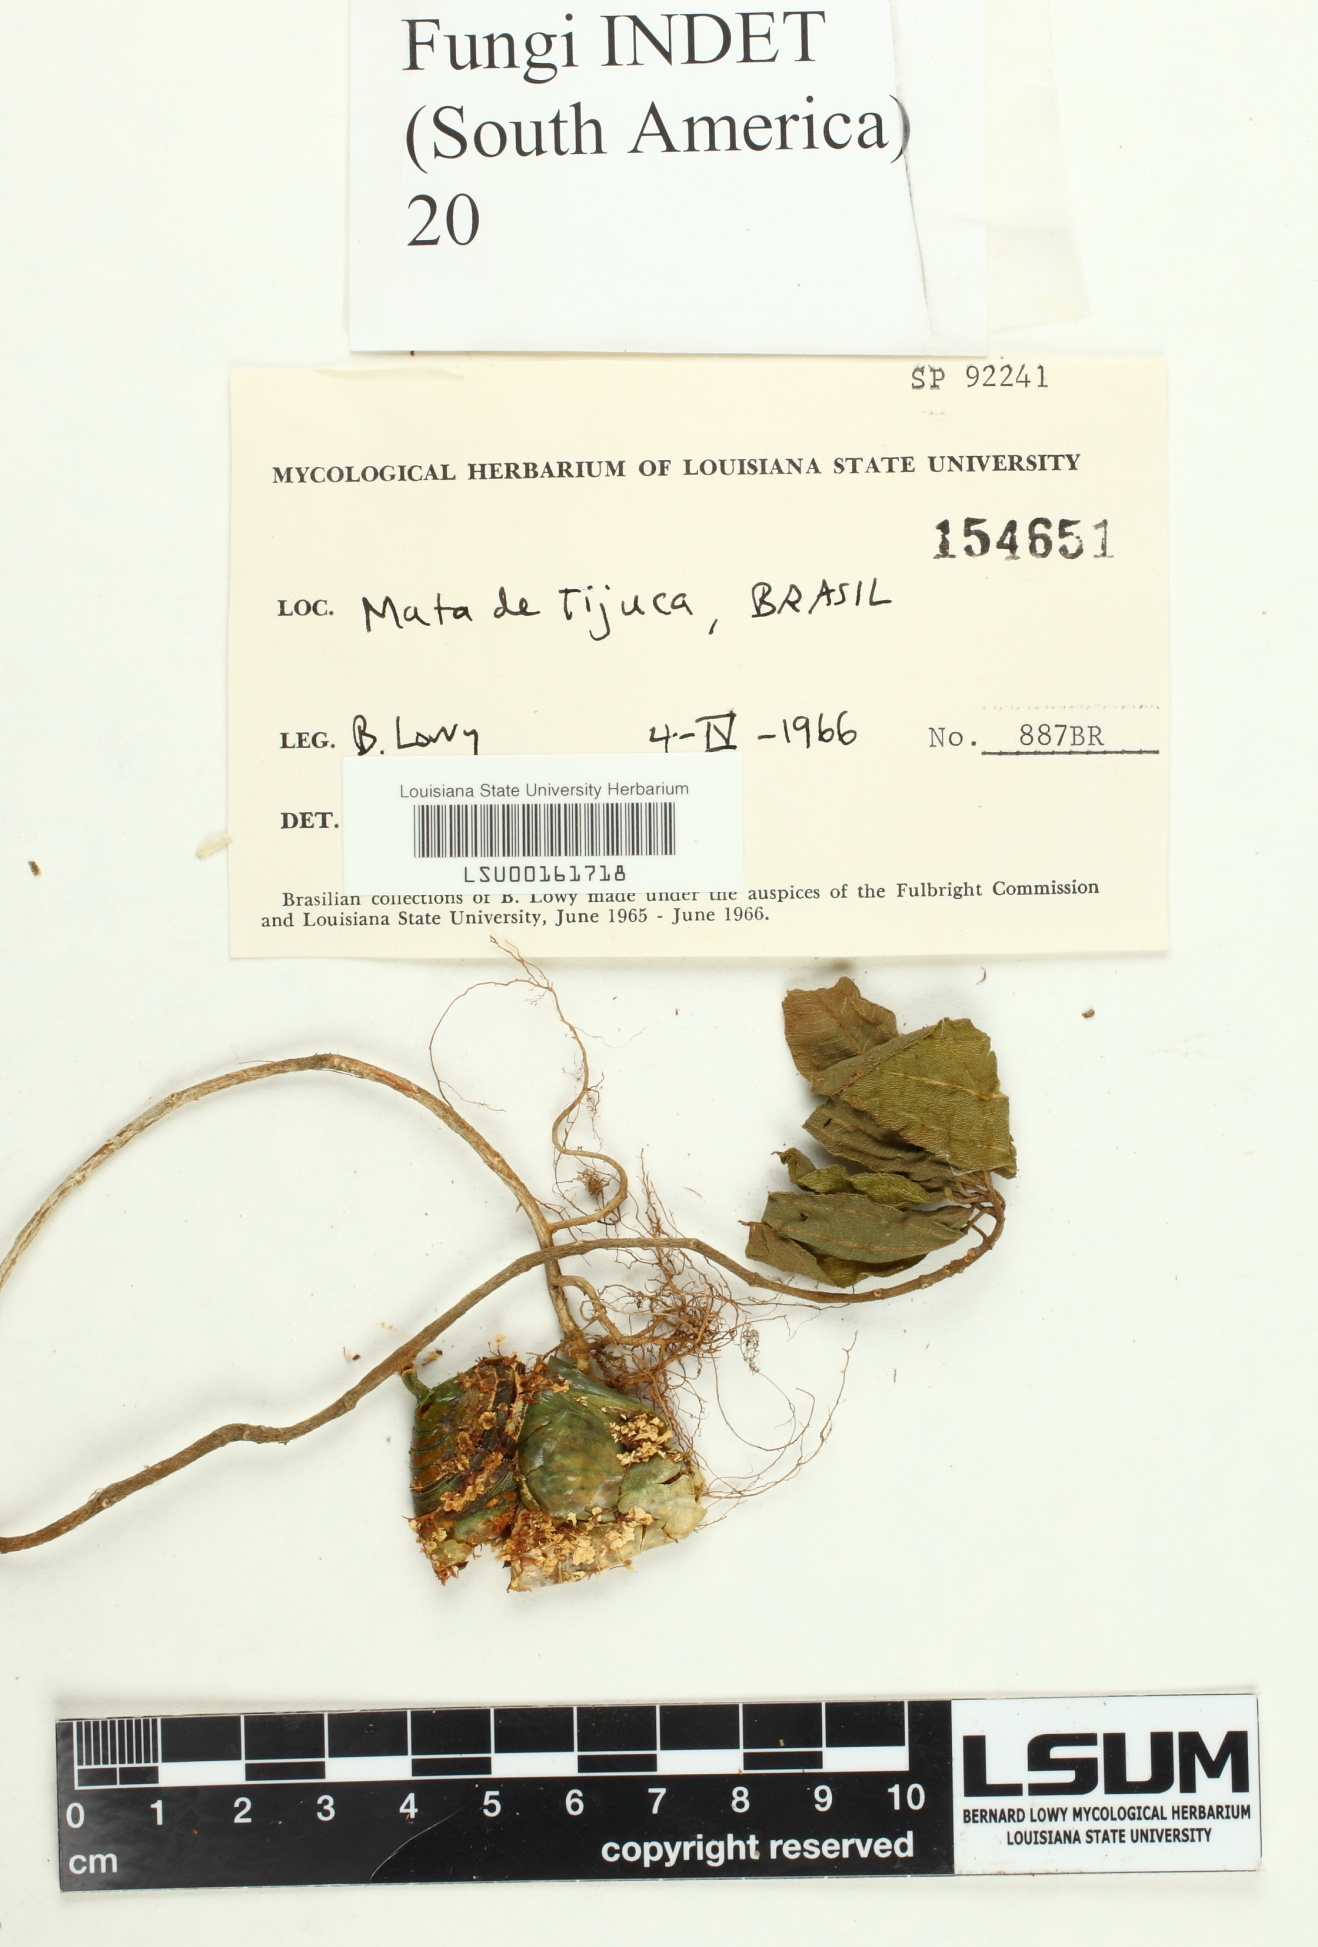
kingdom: Fungi
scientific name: Fungi
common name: Fungi
